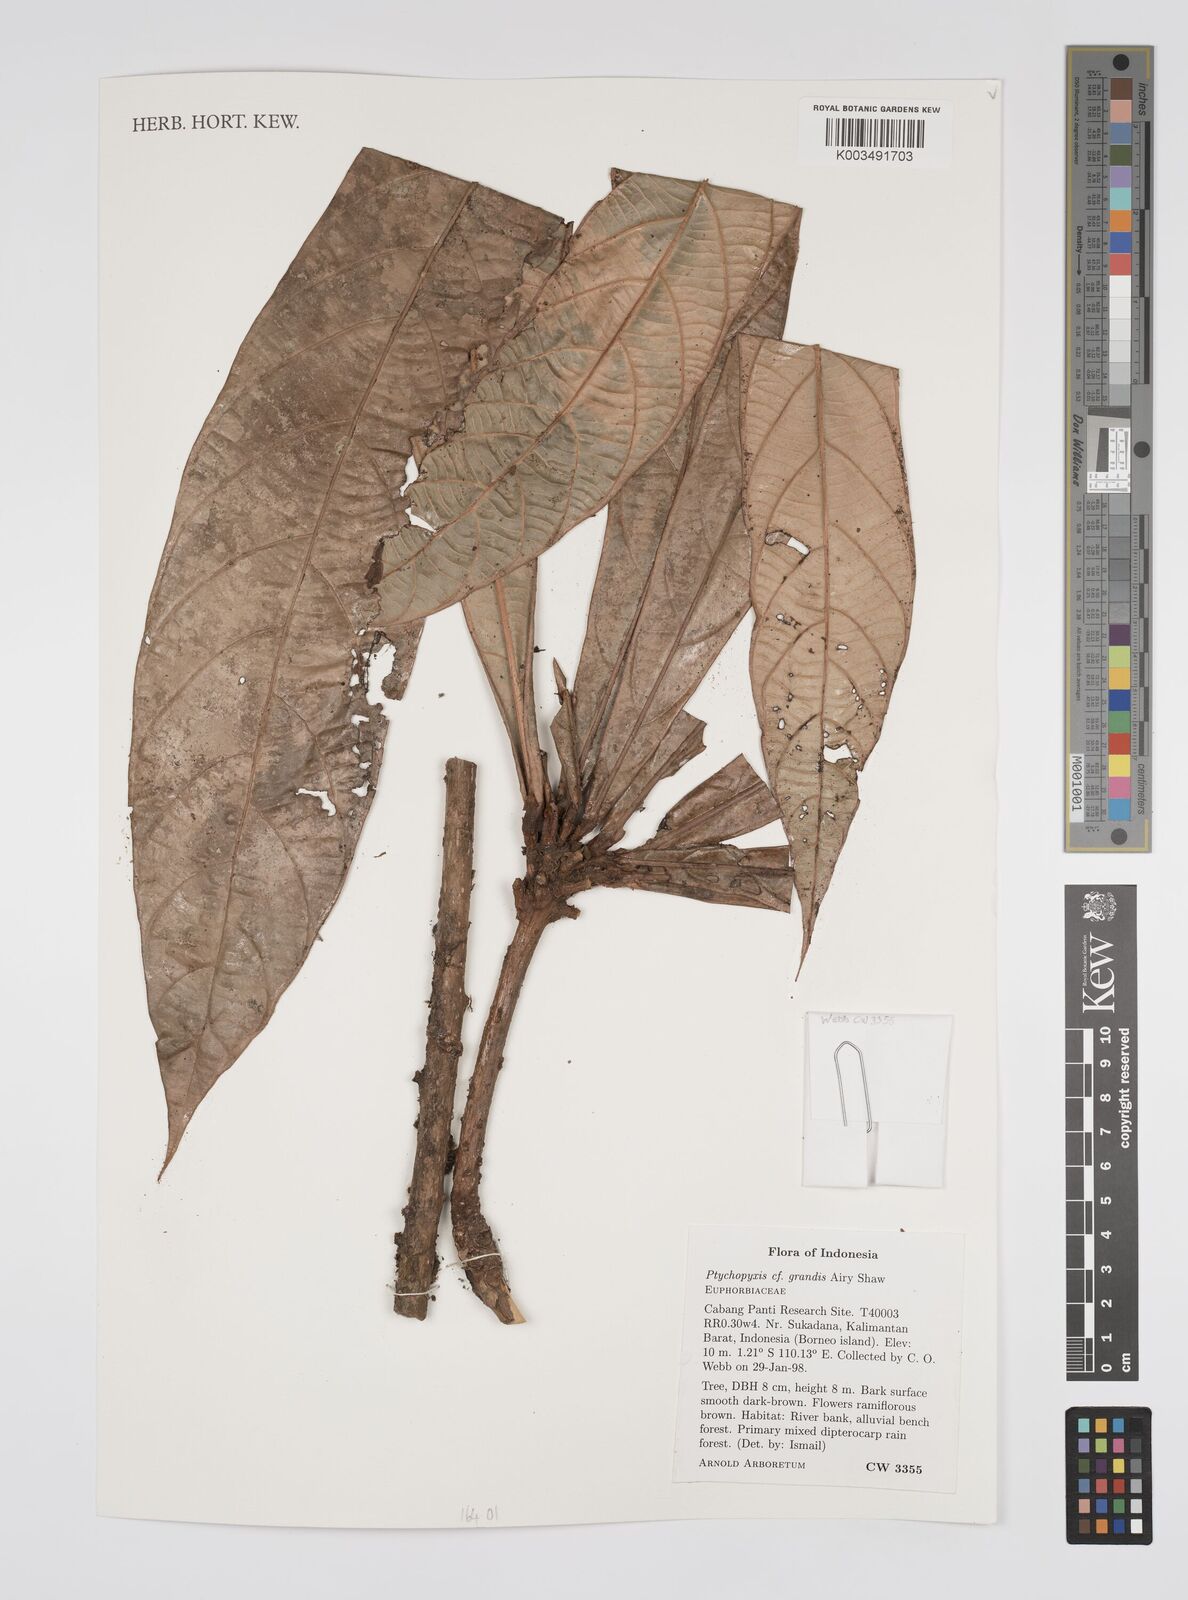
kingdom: Plantae
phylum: Tracheophyta
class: Magnoliopsida
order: Malpighiales
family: Euphorbiaceae
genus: Ptychopyxis
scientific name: Ptychopyxis grandis
